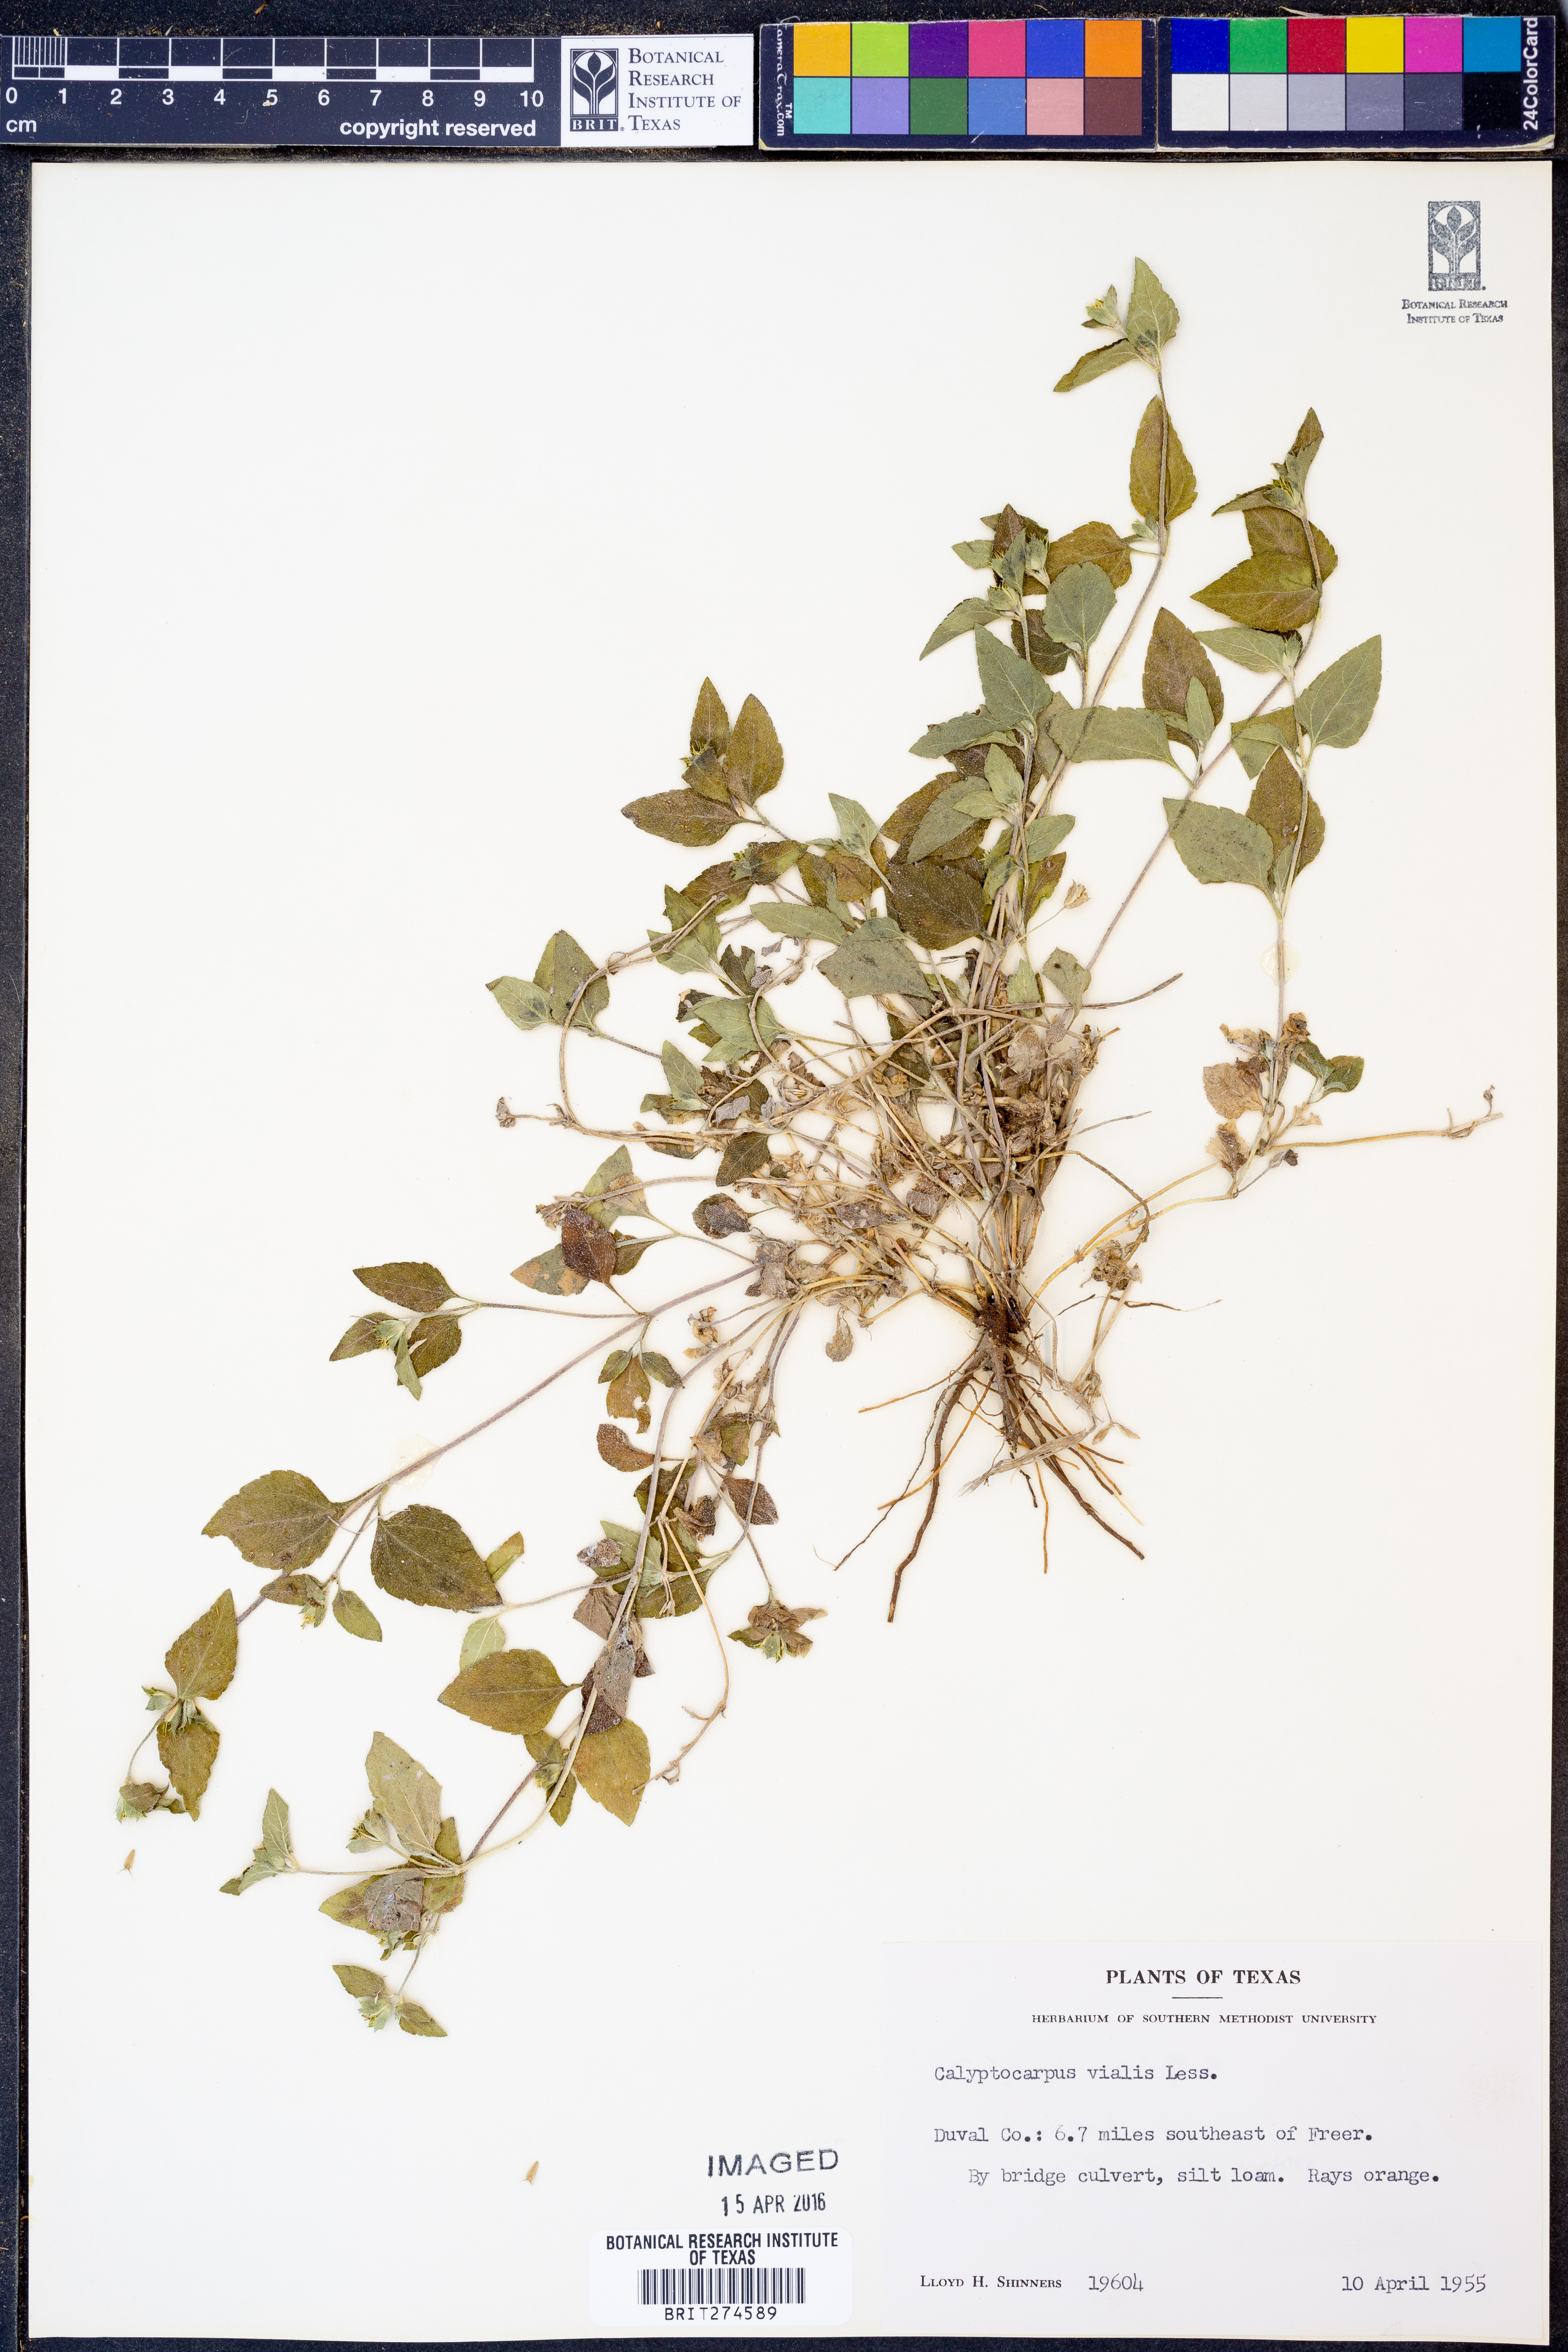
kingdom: Plantae
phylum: Tracheophyta
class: Magnoliopsida
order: Asterales
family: Asteraceae
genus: Calyptocarpus
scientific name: Calyptocarpus vialis
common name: Straggler daisy
